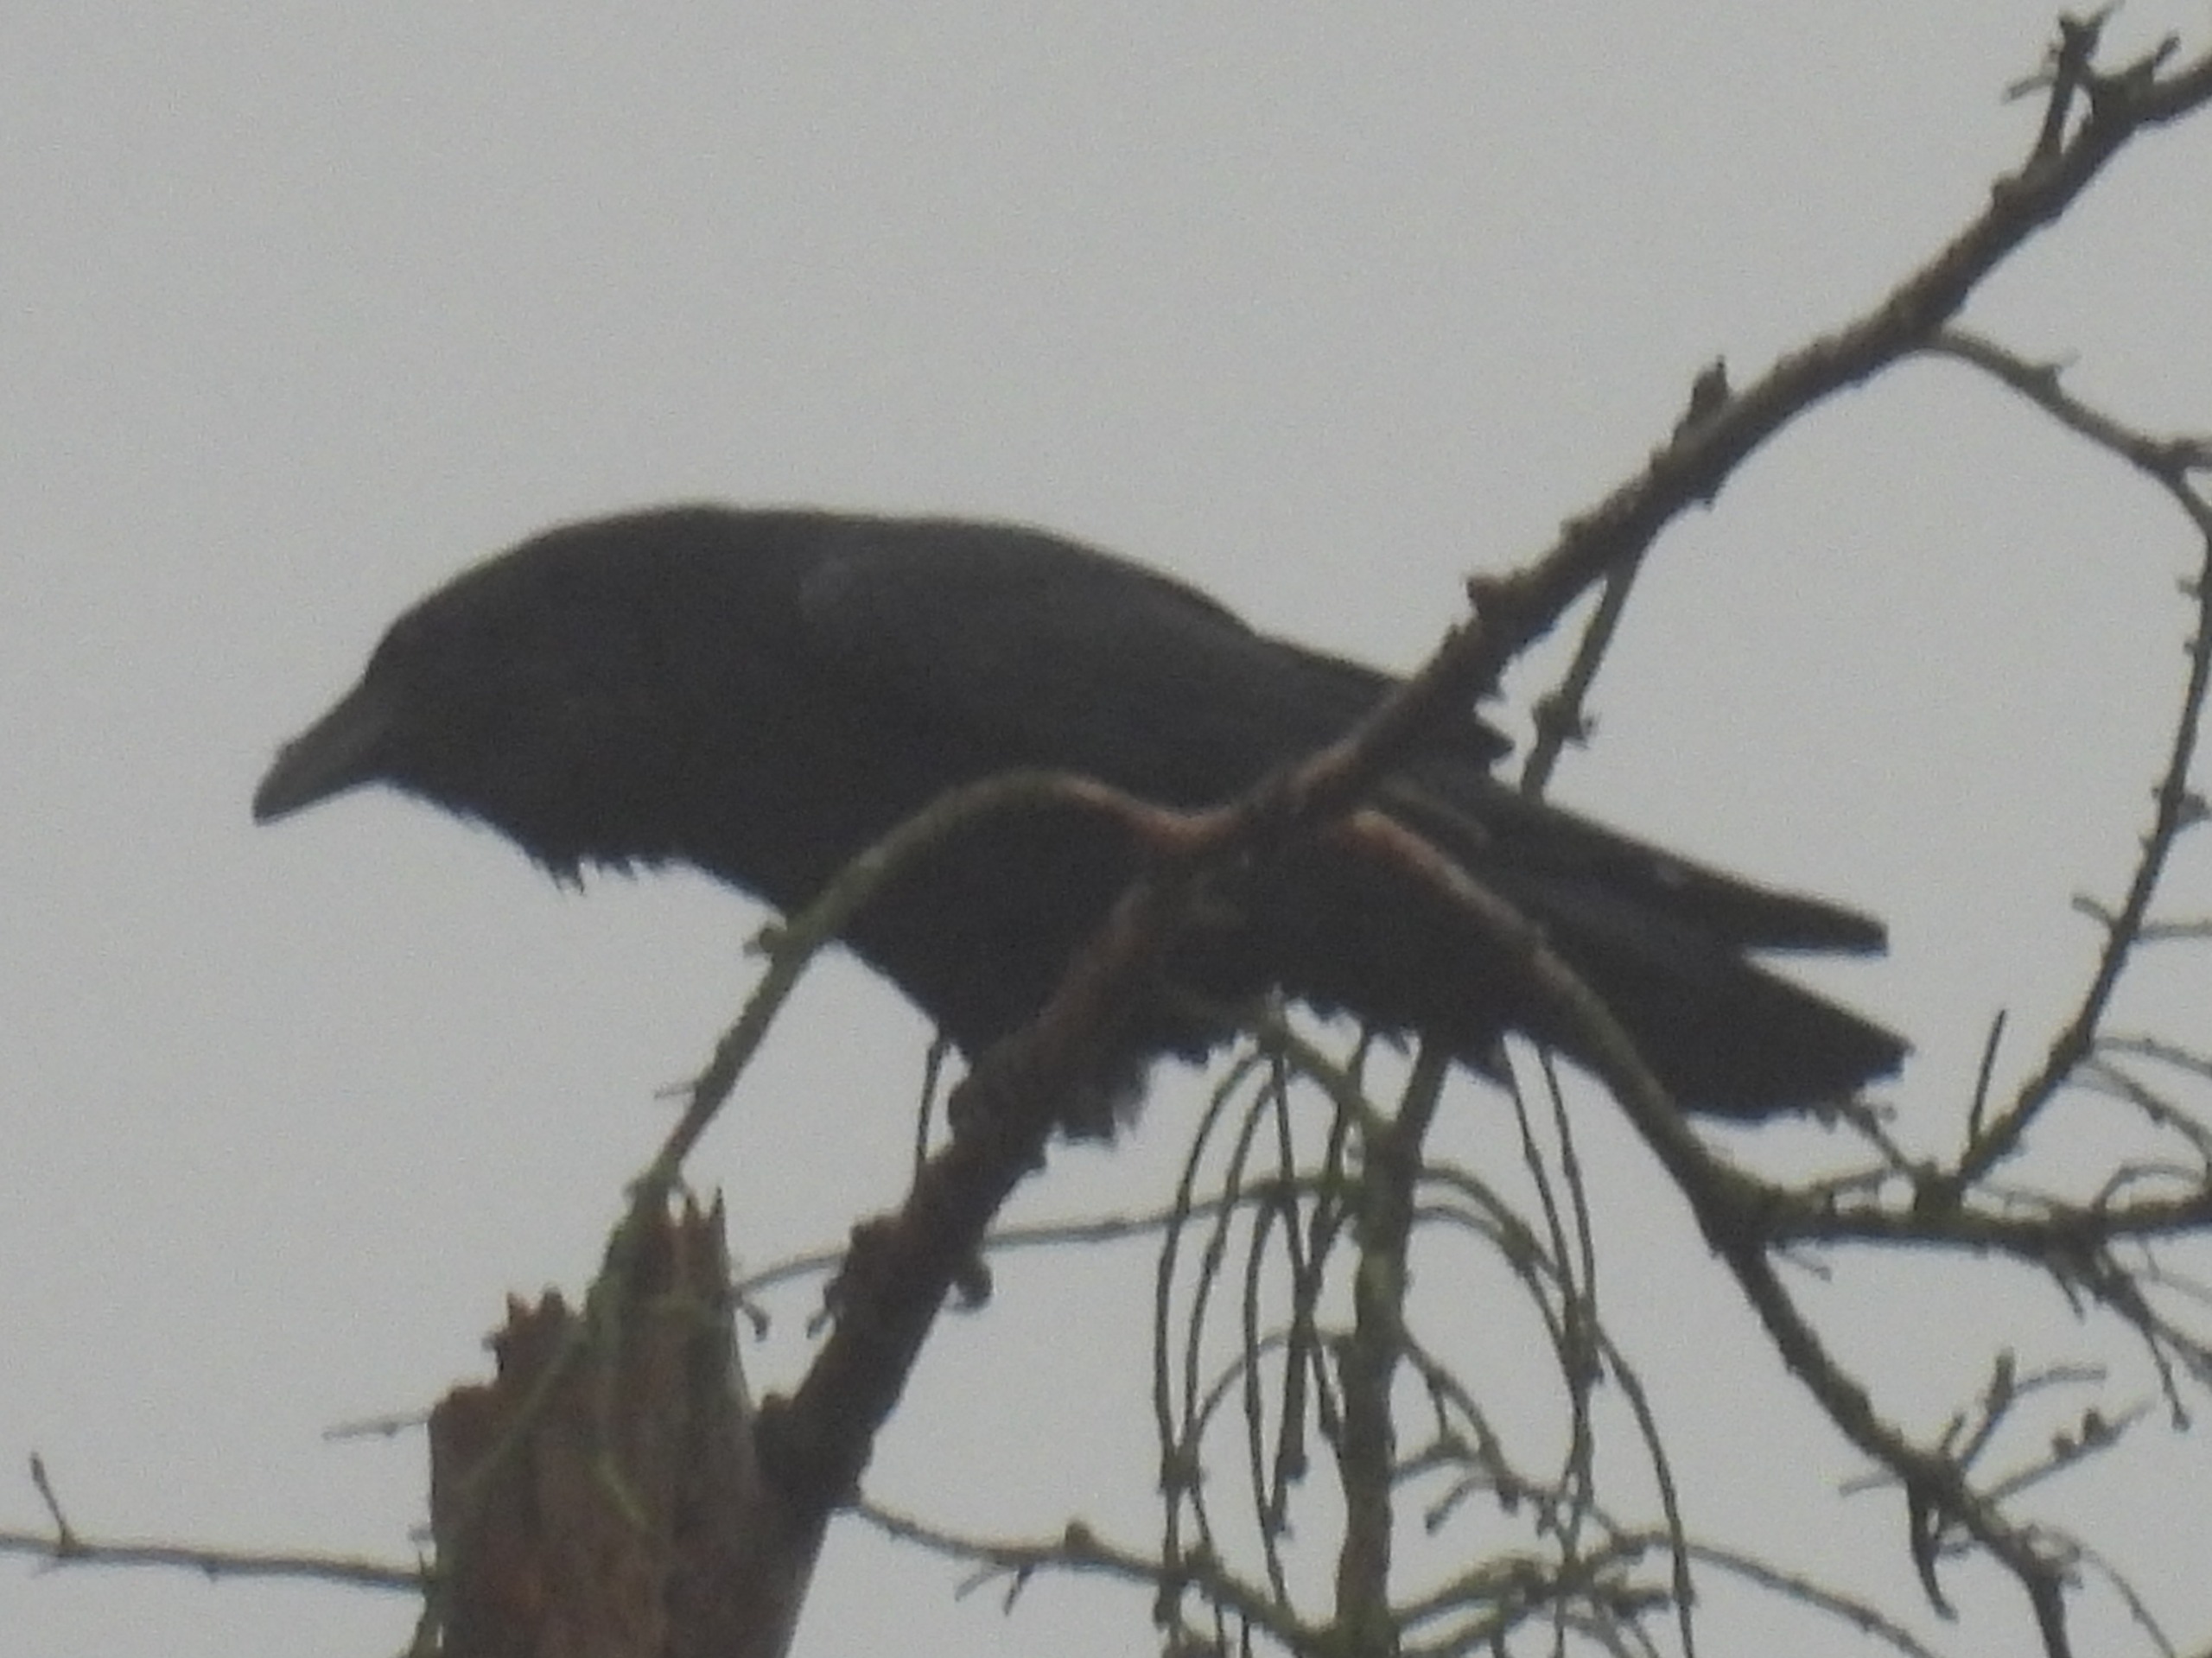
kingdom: Animalia
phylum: Chordata
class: Aves
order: Passeriformes
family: Corvidae
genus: Corvus
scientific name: Corvus corax
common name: Ravn
